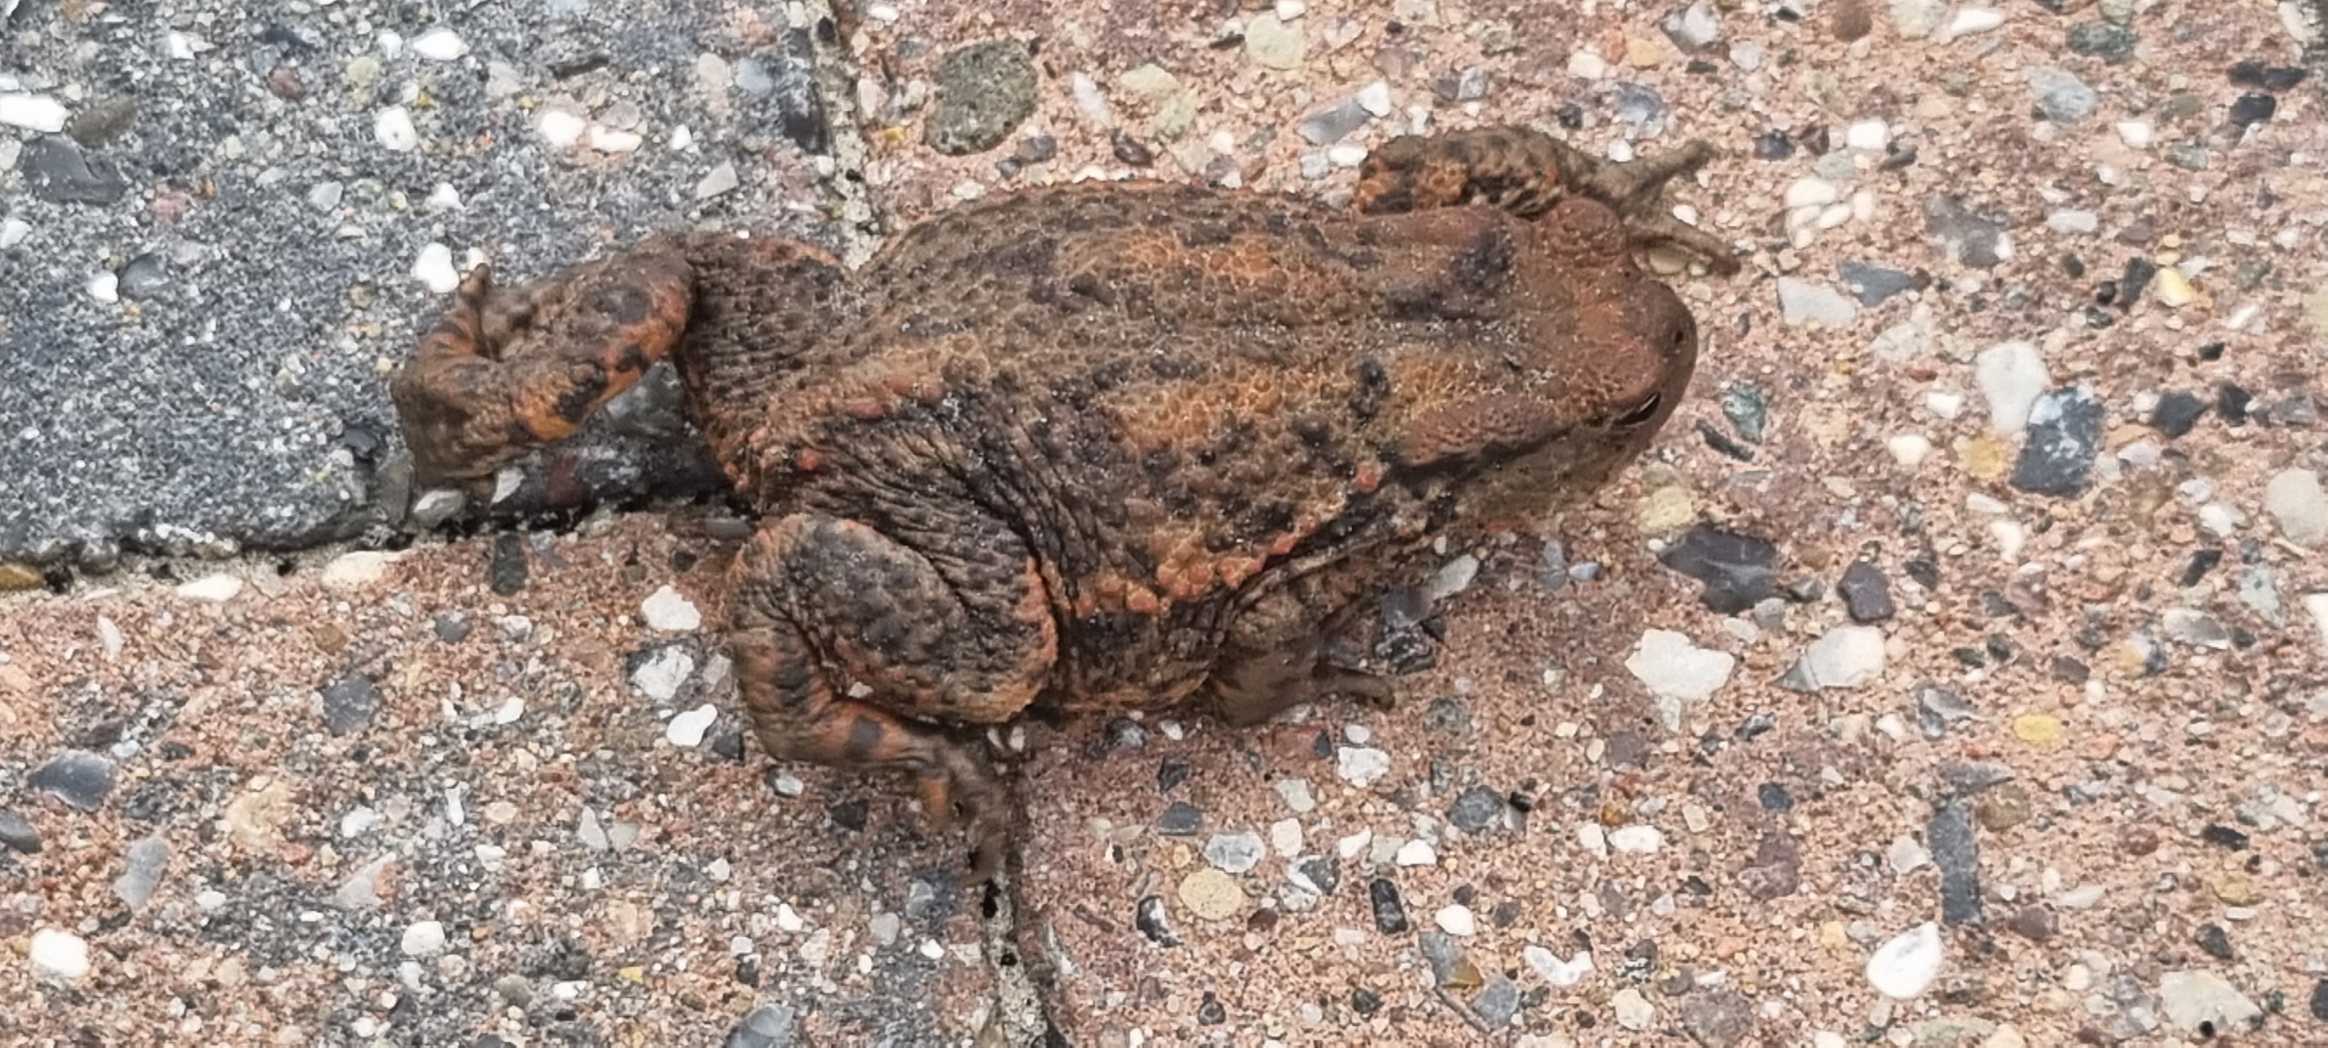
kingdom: Animalia
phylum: Chordata
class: Amphibia
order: Anura
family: Bufonidae
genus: Bufo
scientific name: Bufo bufo
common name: Skrubtudse
